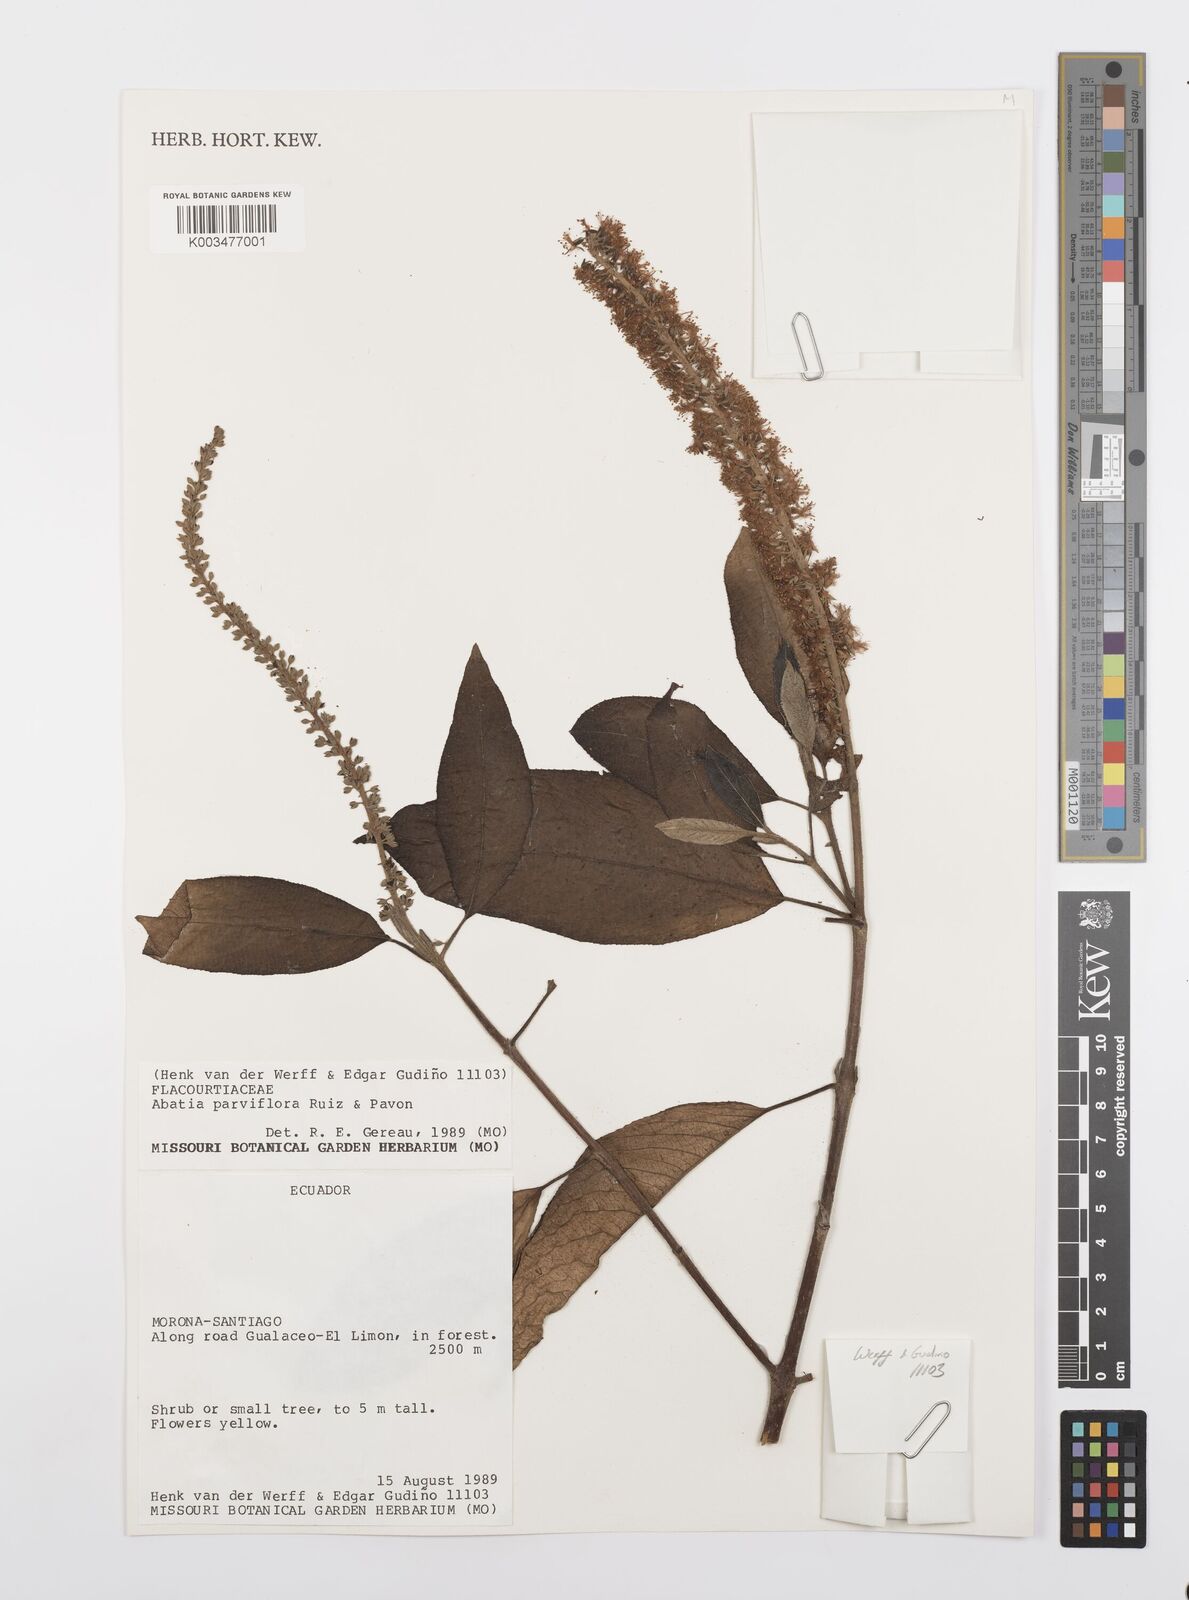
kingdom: Plantae
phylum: Tracheophyta
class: Magnoliopsida
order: Malpighiales
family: Salicaceae
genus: Abatia
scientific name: Abatia parviflora
